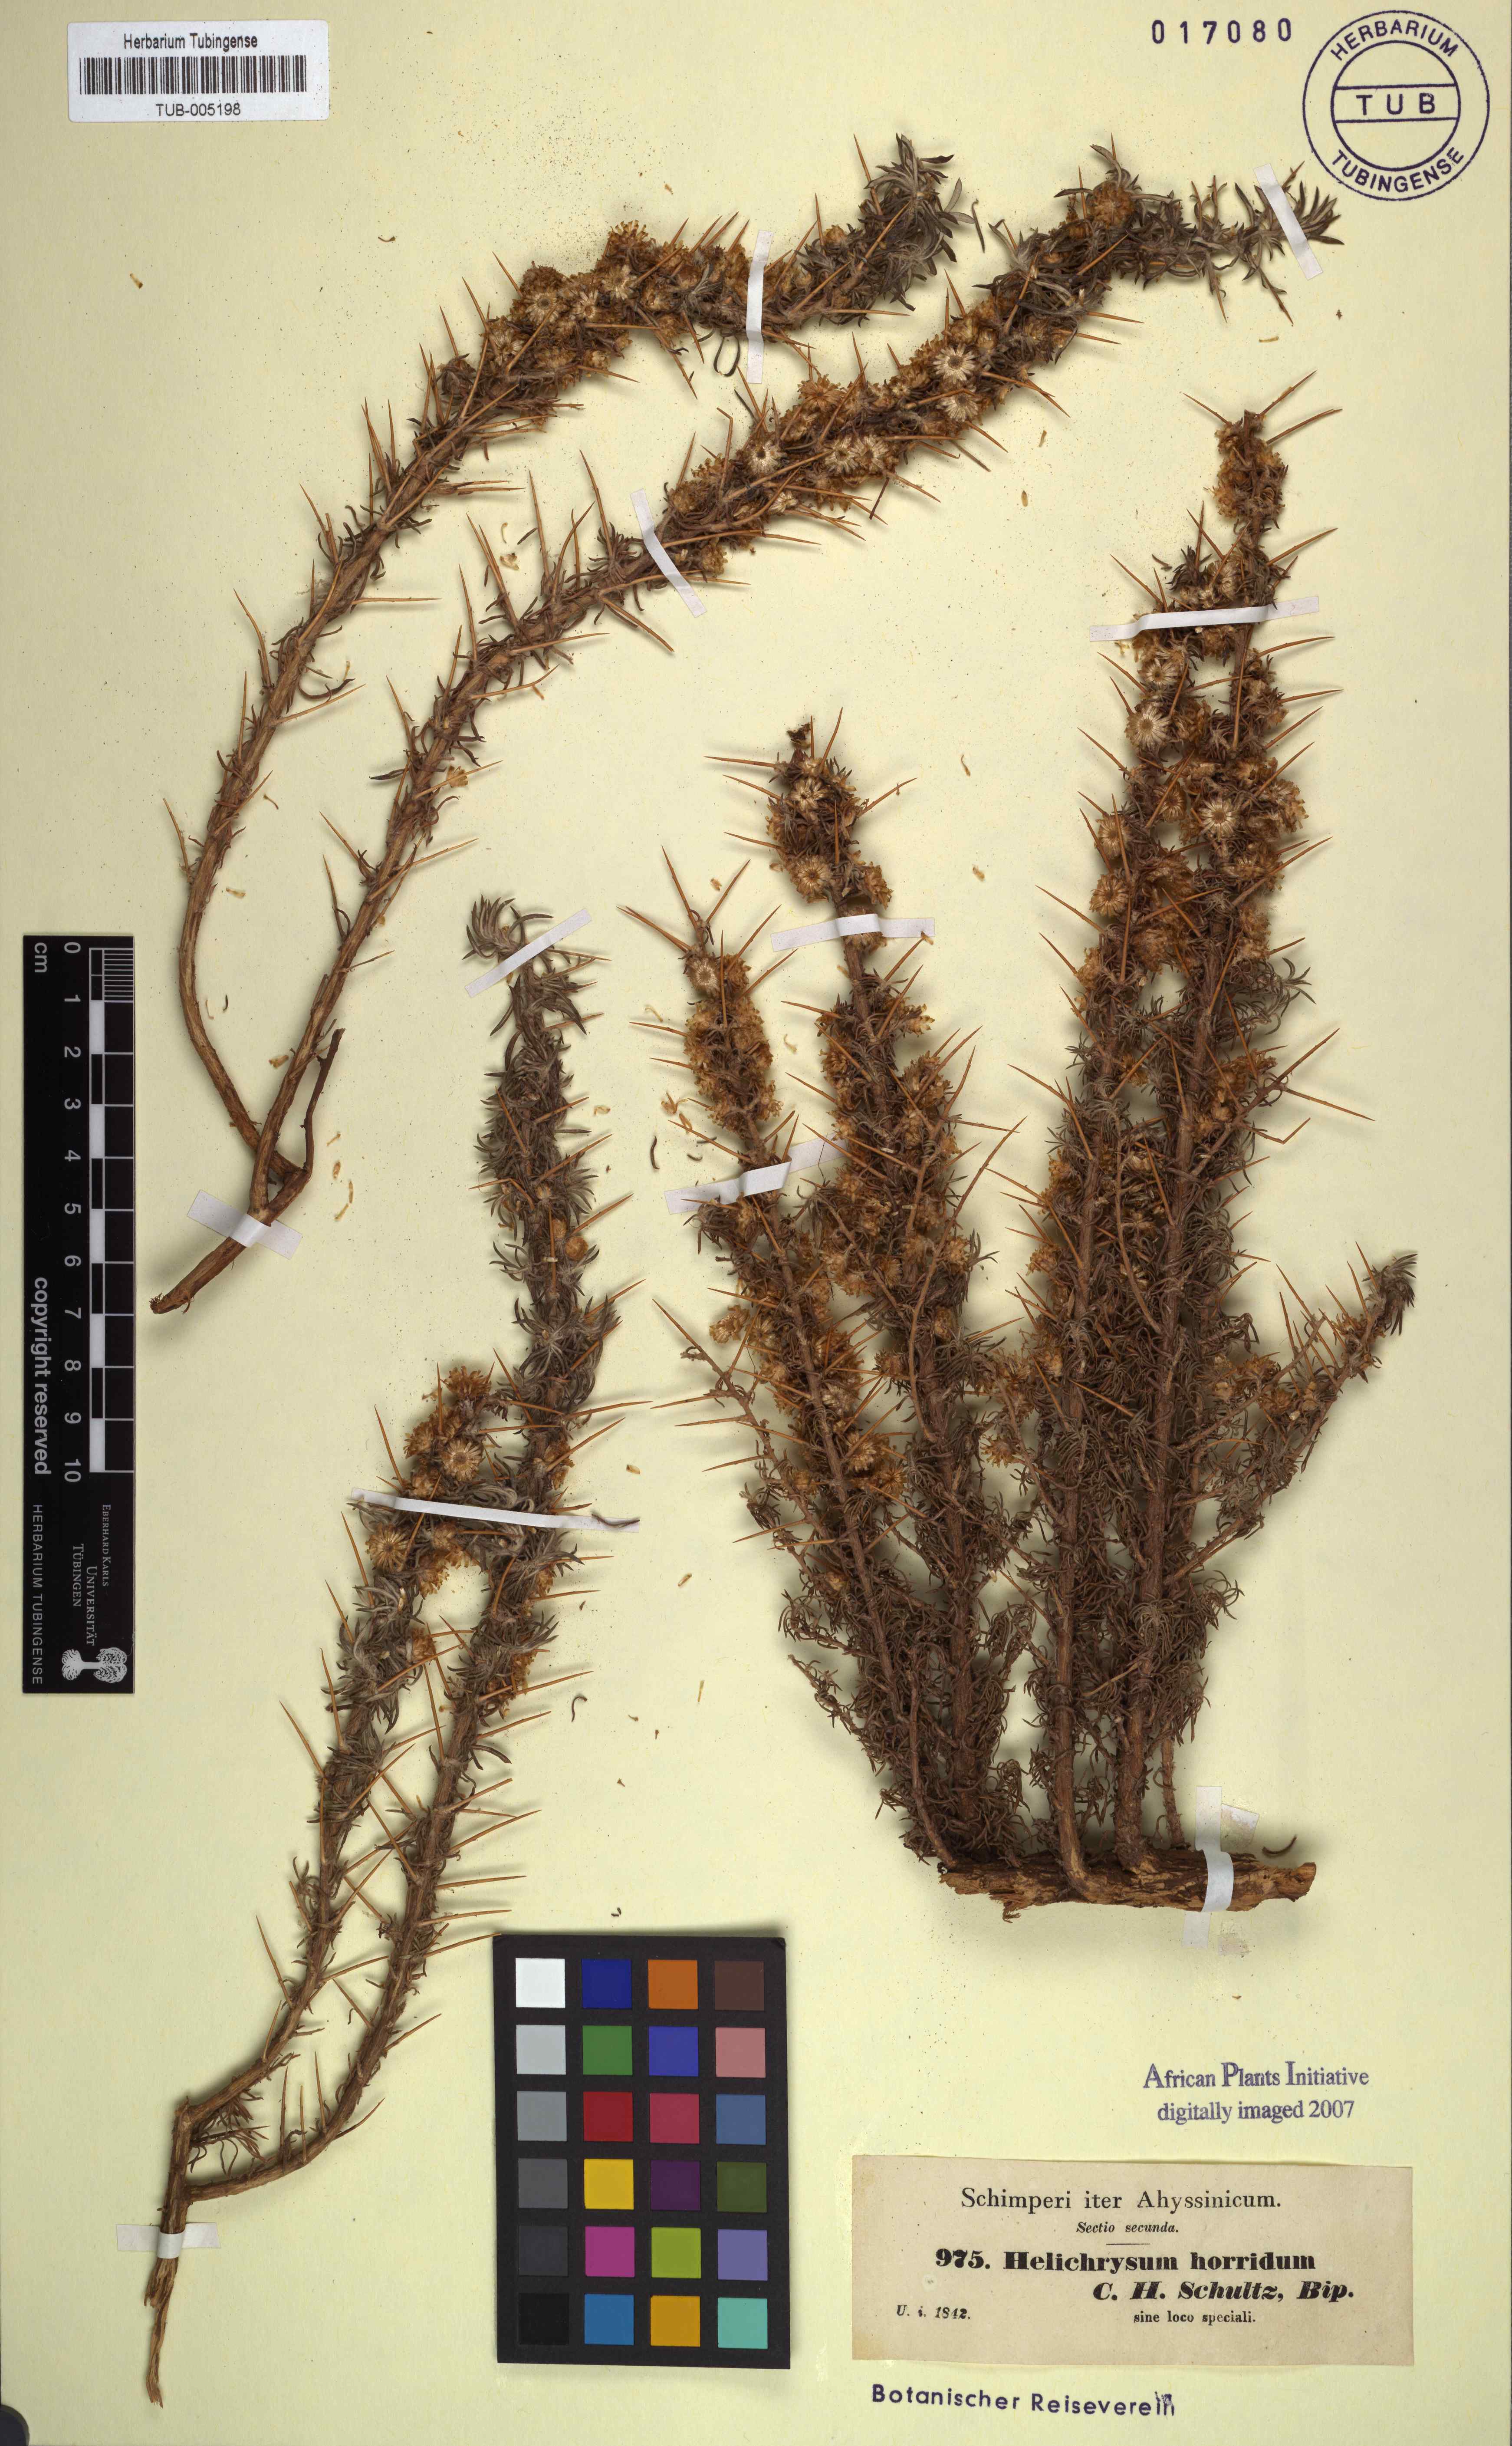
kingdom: Plantae
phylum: Tracheophyta
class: Magnoliopsida
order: Asterales
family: Asteraceae
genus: Helichrysum
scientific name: Helichrysum horridum
